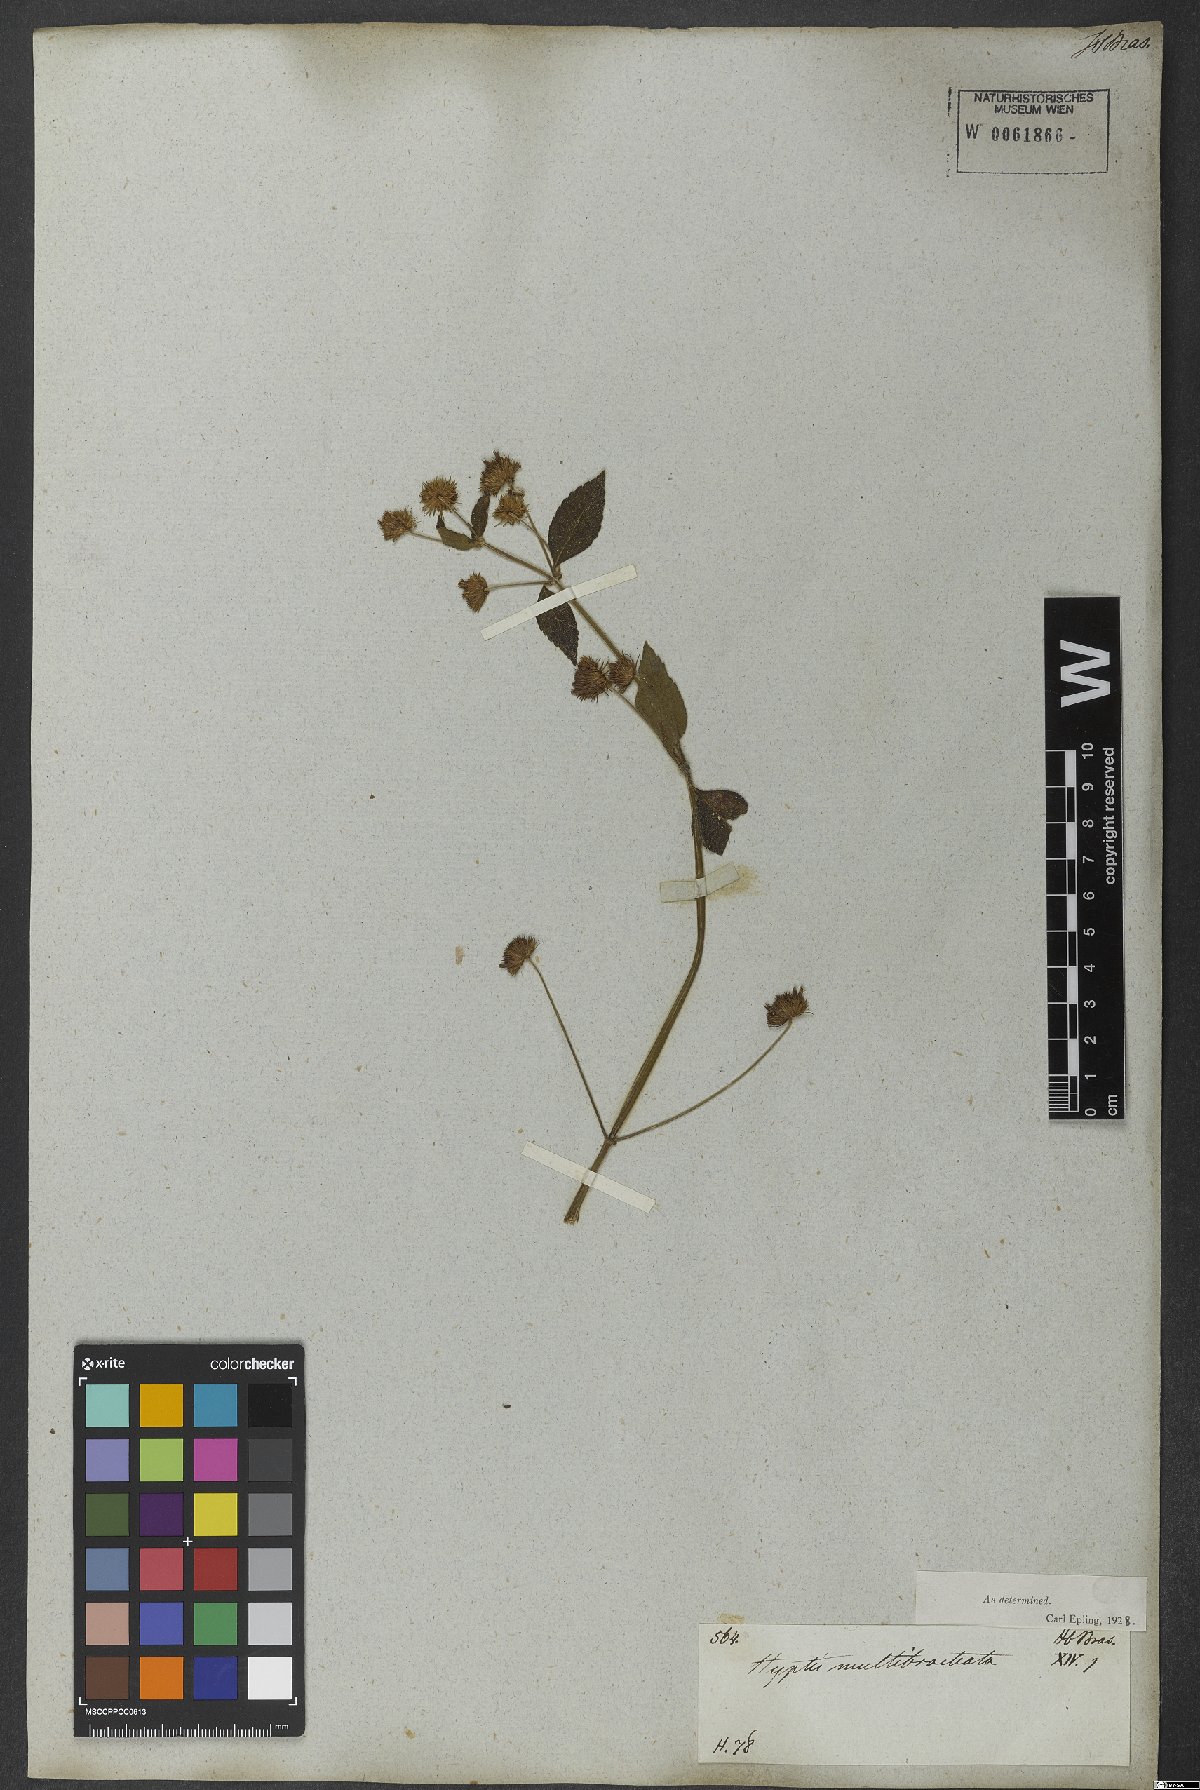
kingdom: Plantae
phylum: Tracheophyta
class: Magnoliopsida
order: Lamiales
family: Lamiaceae
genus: Hyptis
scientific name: Hyptis multibracteata
